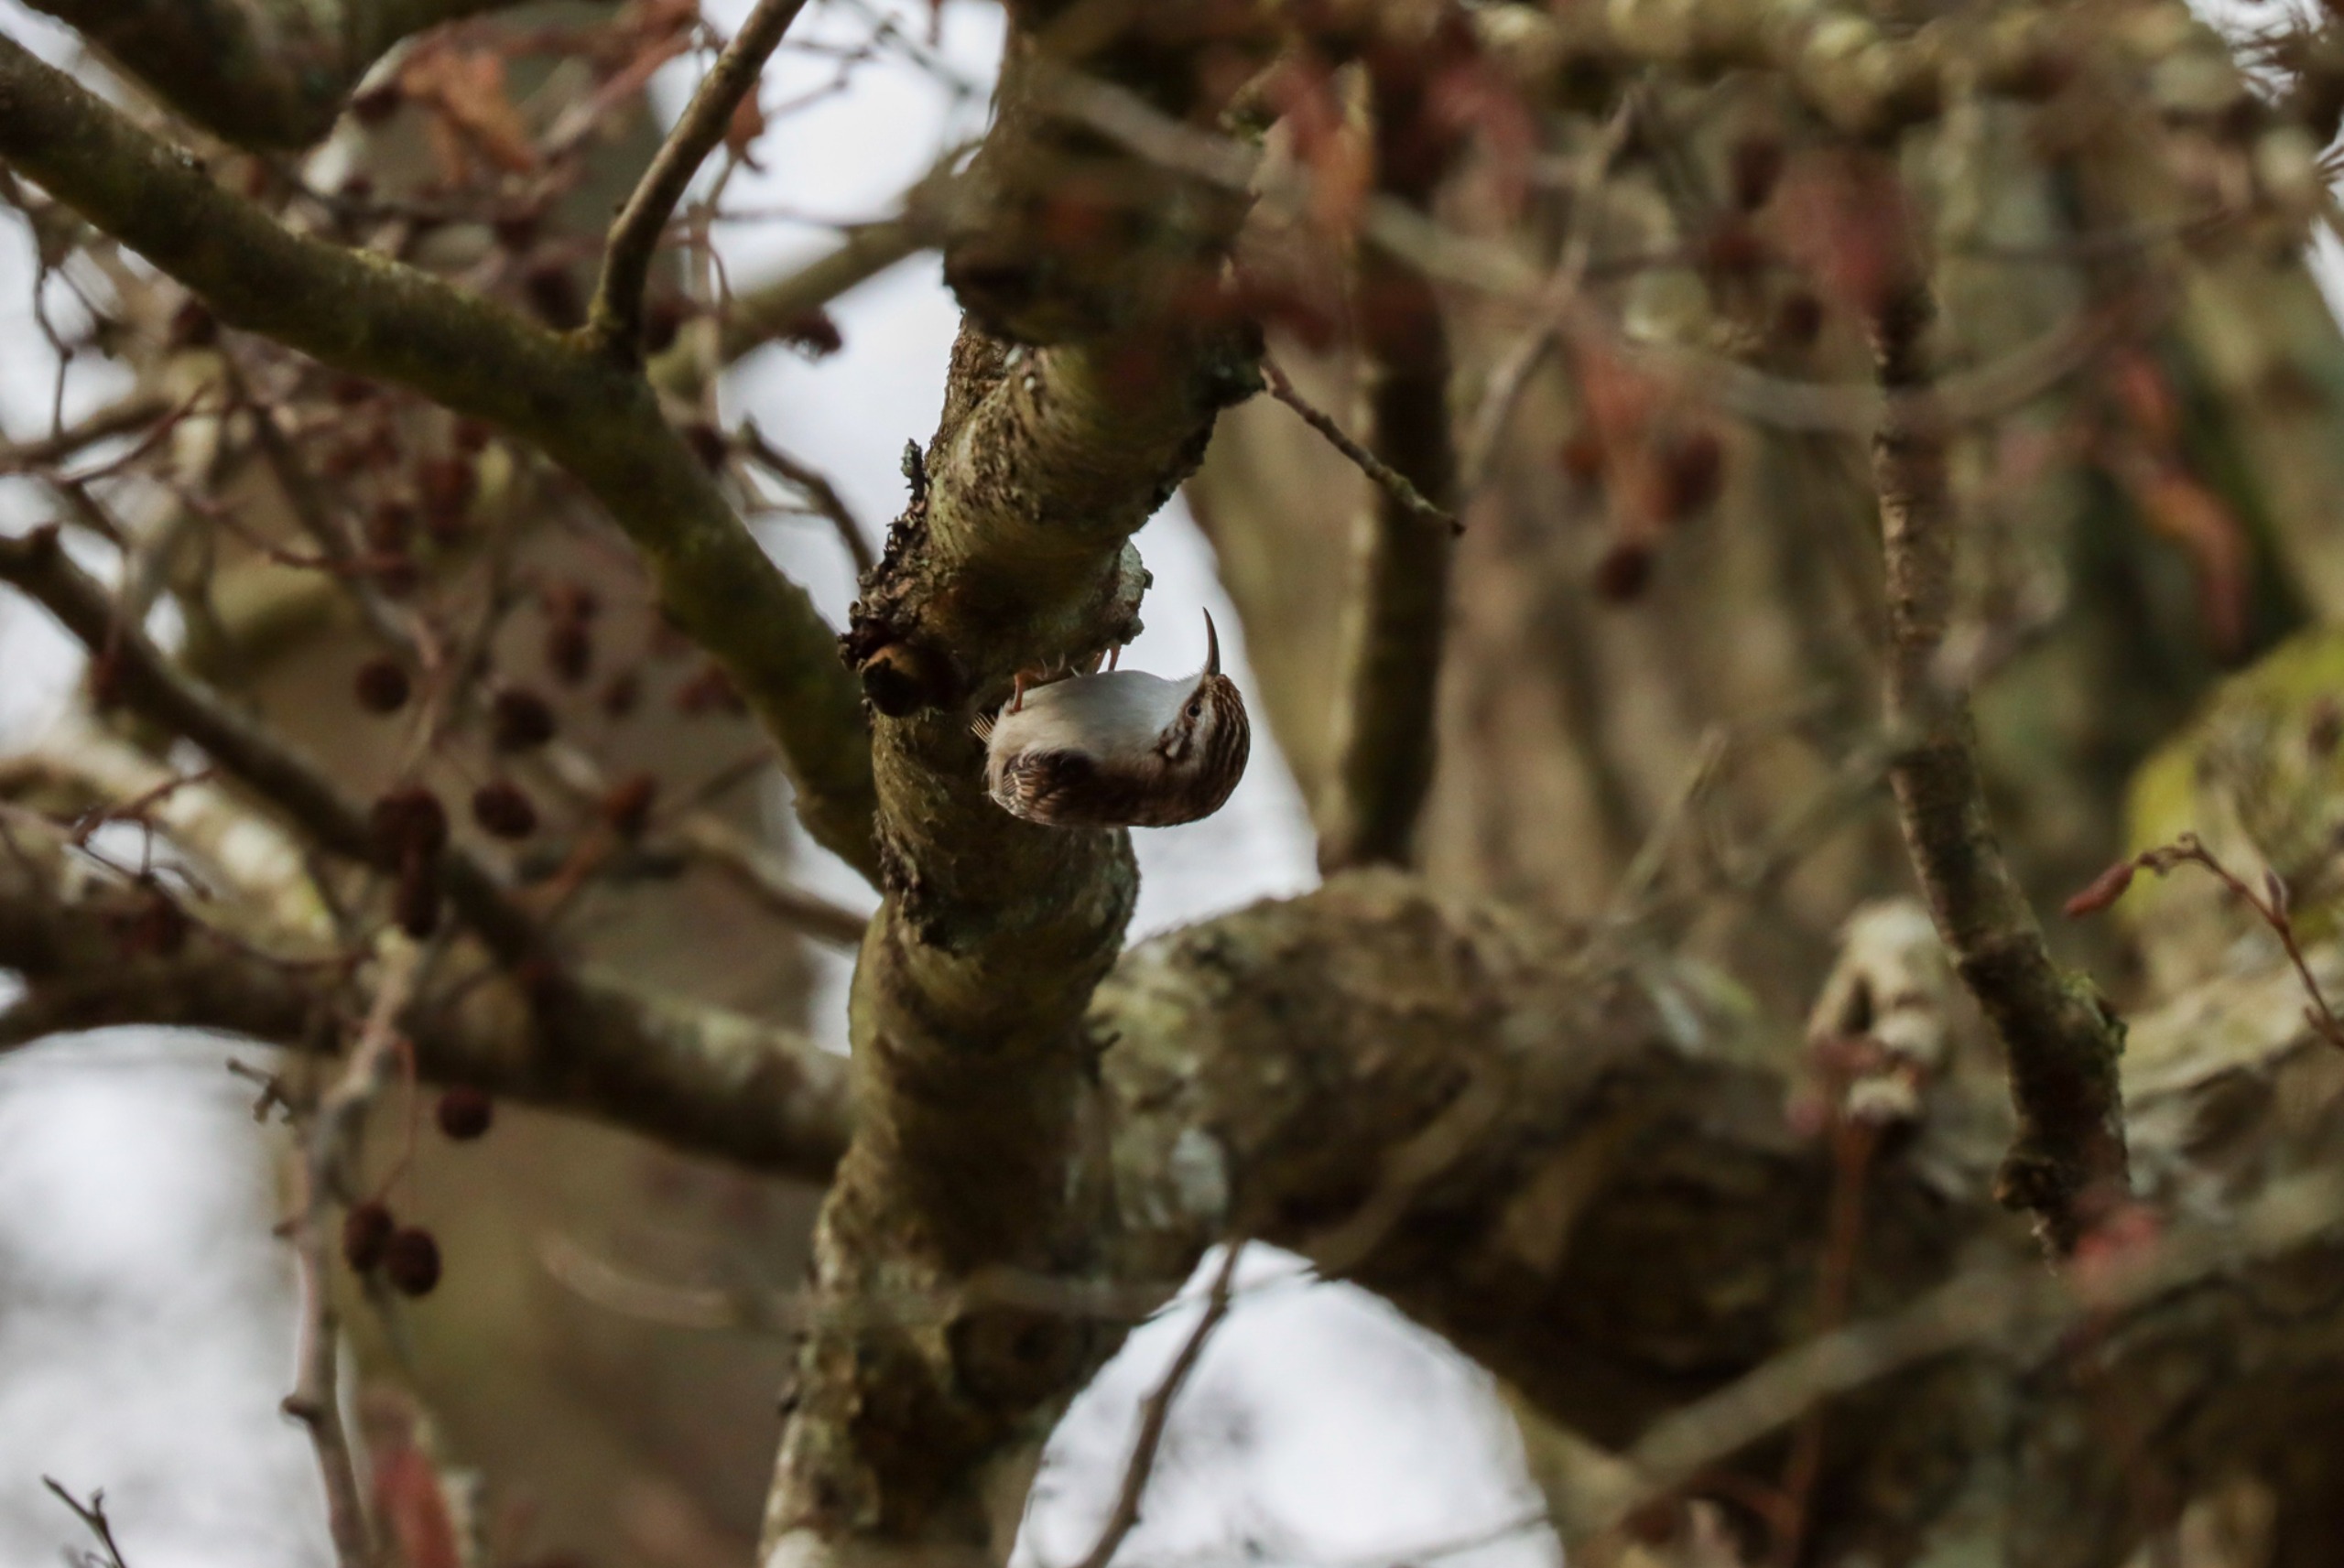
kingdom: Animalia
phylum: Chordata
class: Aves
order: Passeriformes
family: Certhiidae
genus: Certhia
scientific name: Certhia familiaris
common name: Træløber
